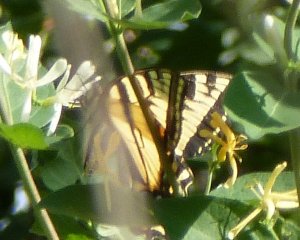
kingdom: Animalia
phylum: Arthropoda
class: Insecta
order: Lepidoptera
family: Papilionidae
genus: Pterourus
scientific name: Pterourus canadensis
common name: Canadian Tiger Swallowtail
